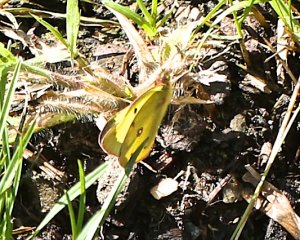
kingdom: Animalia
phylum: Arthropoda
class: Insecta
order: Lepidoptera
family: Pieridae
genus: Colias
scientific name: Colias philodice
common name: Clouded Sulphur
